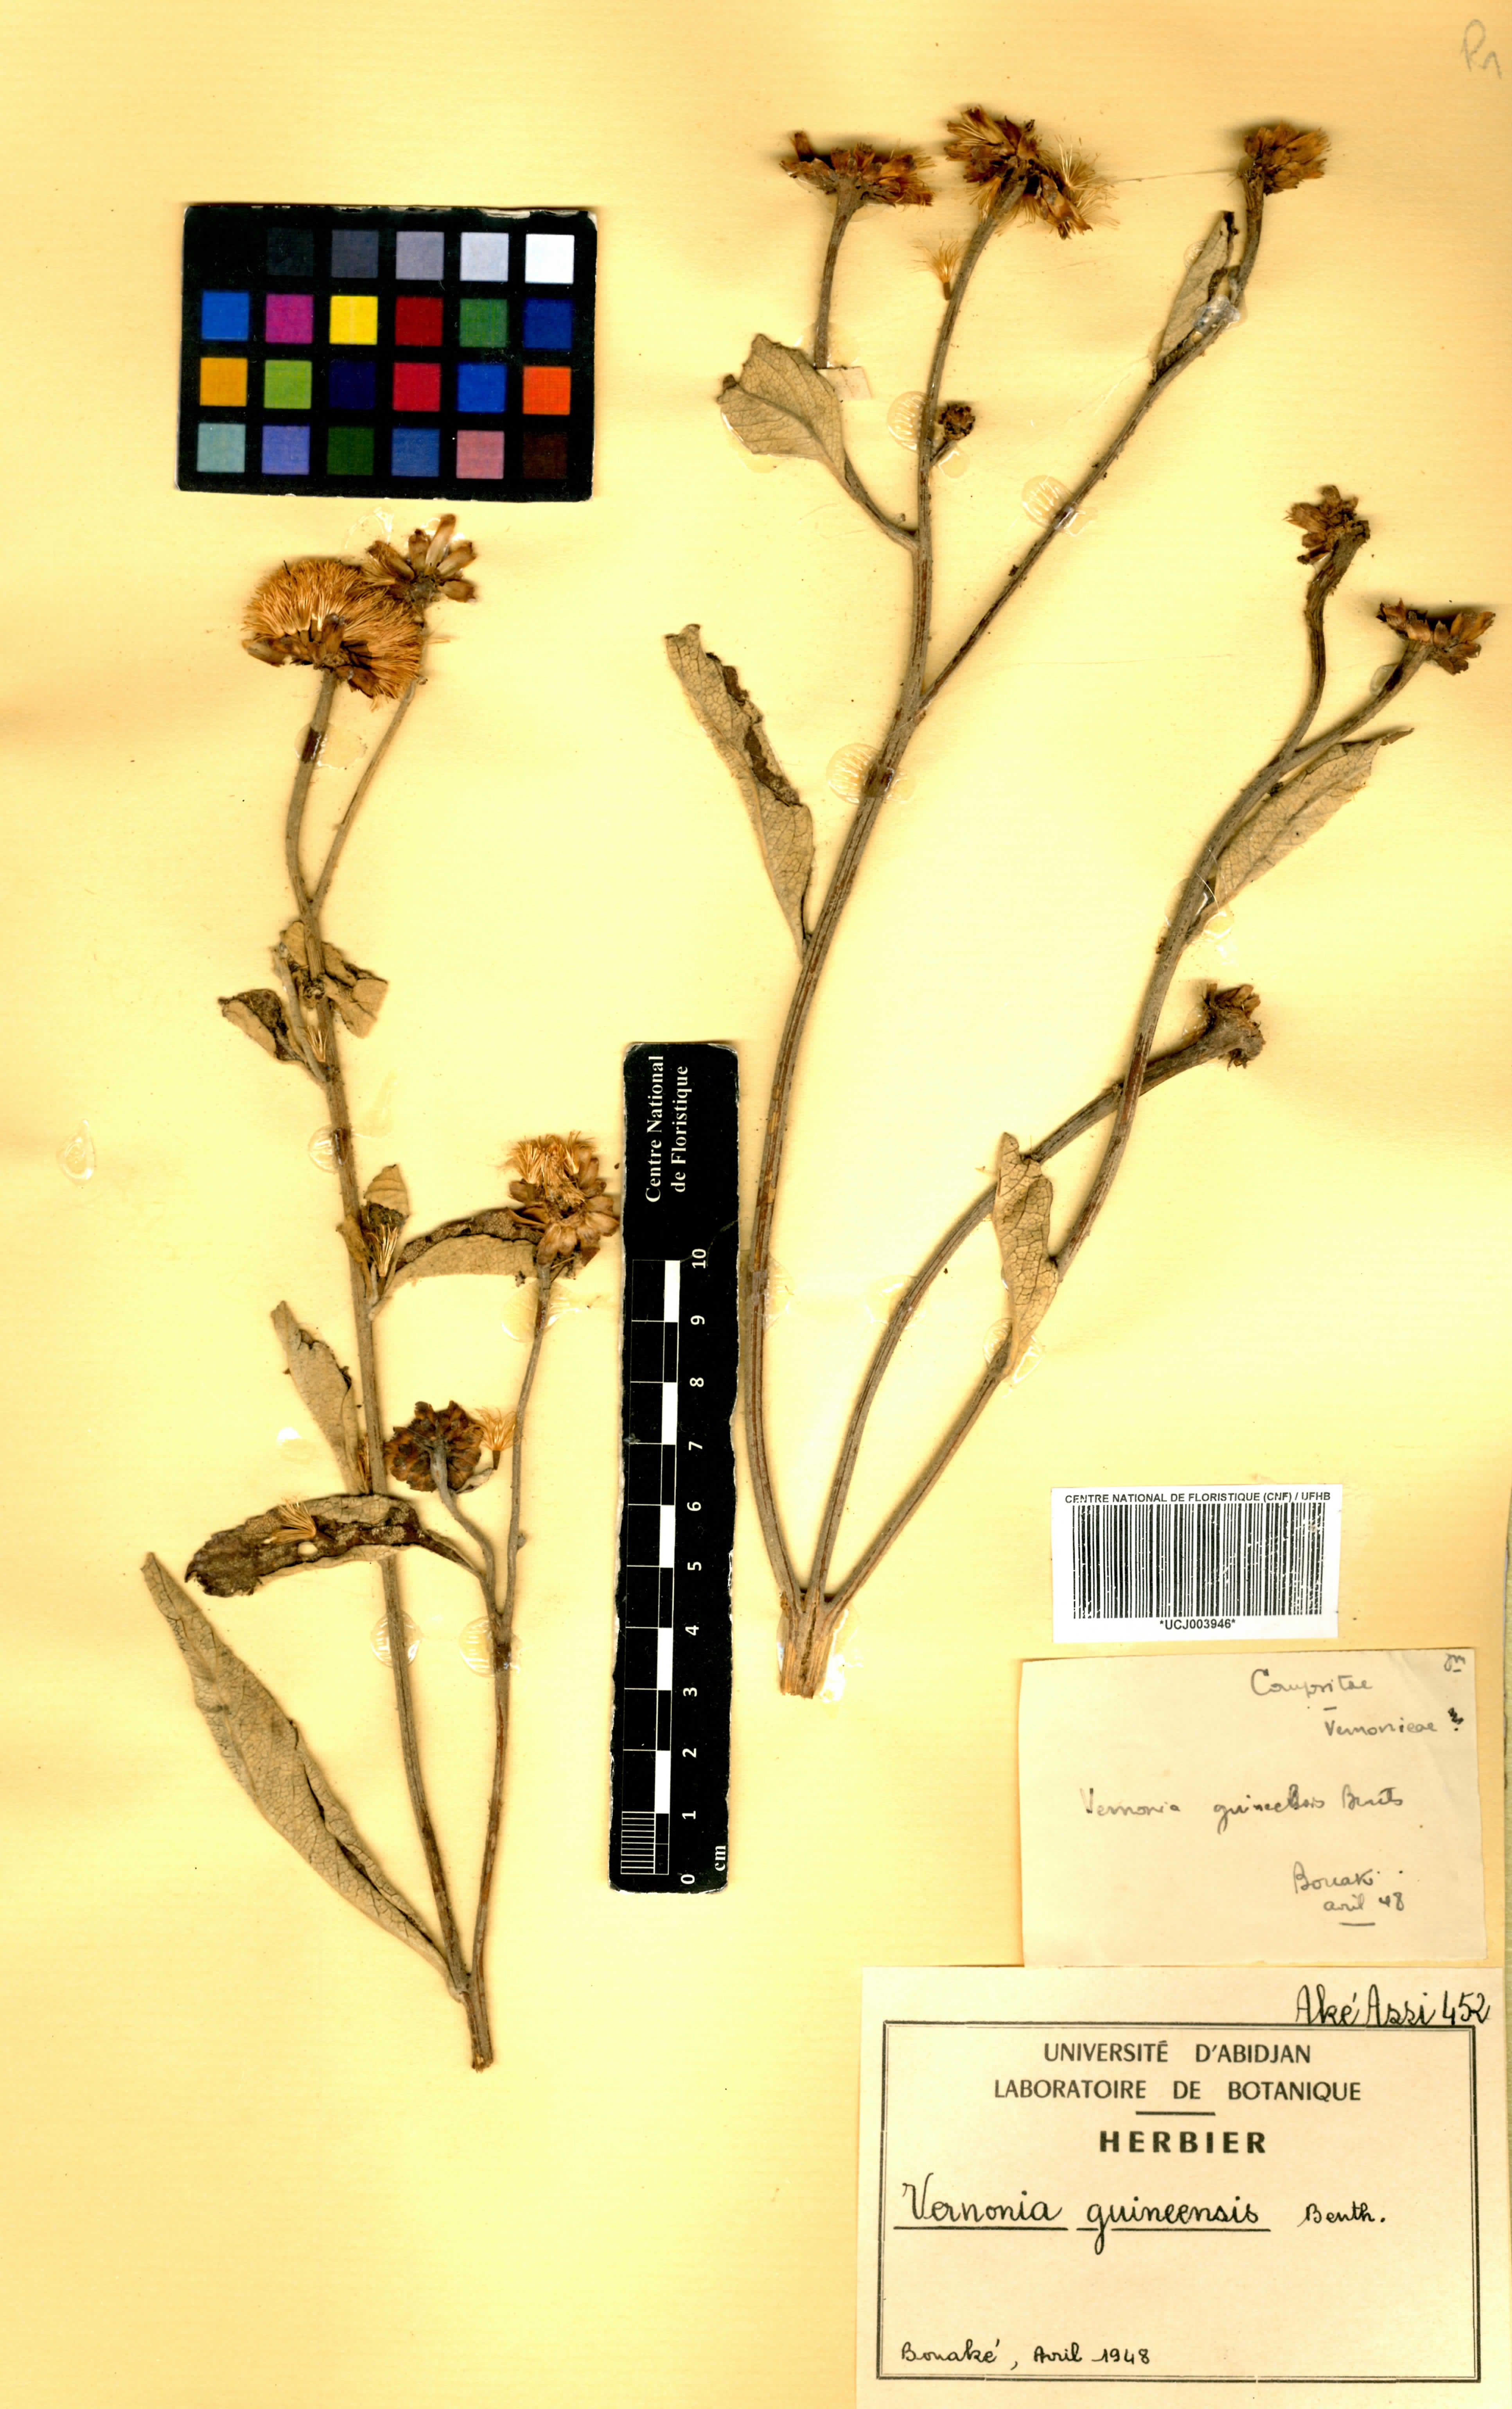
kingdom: Plantae
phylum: Tracheophyta
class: Magnoliopsida
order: Asterales
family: Asteraceae
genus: Baccharoides
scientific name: Baccharoides guineensis
